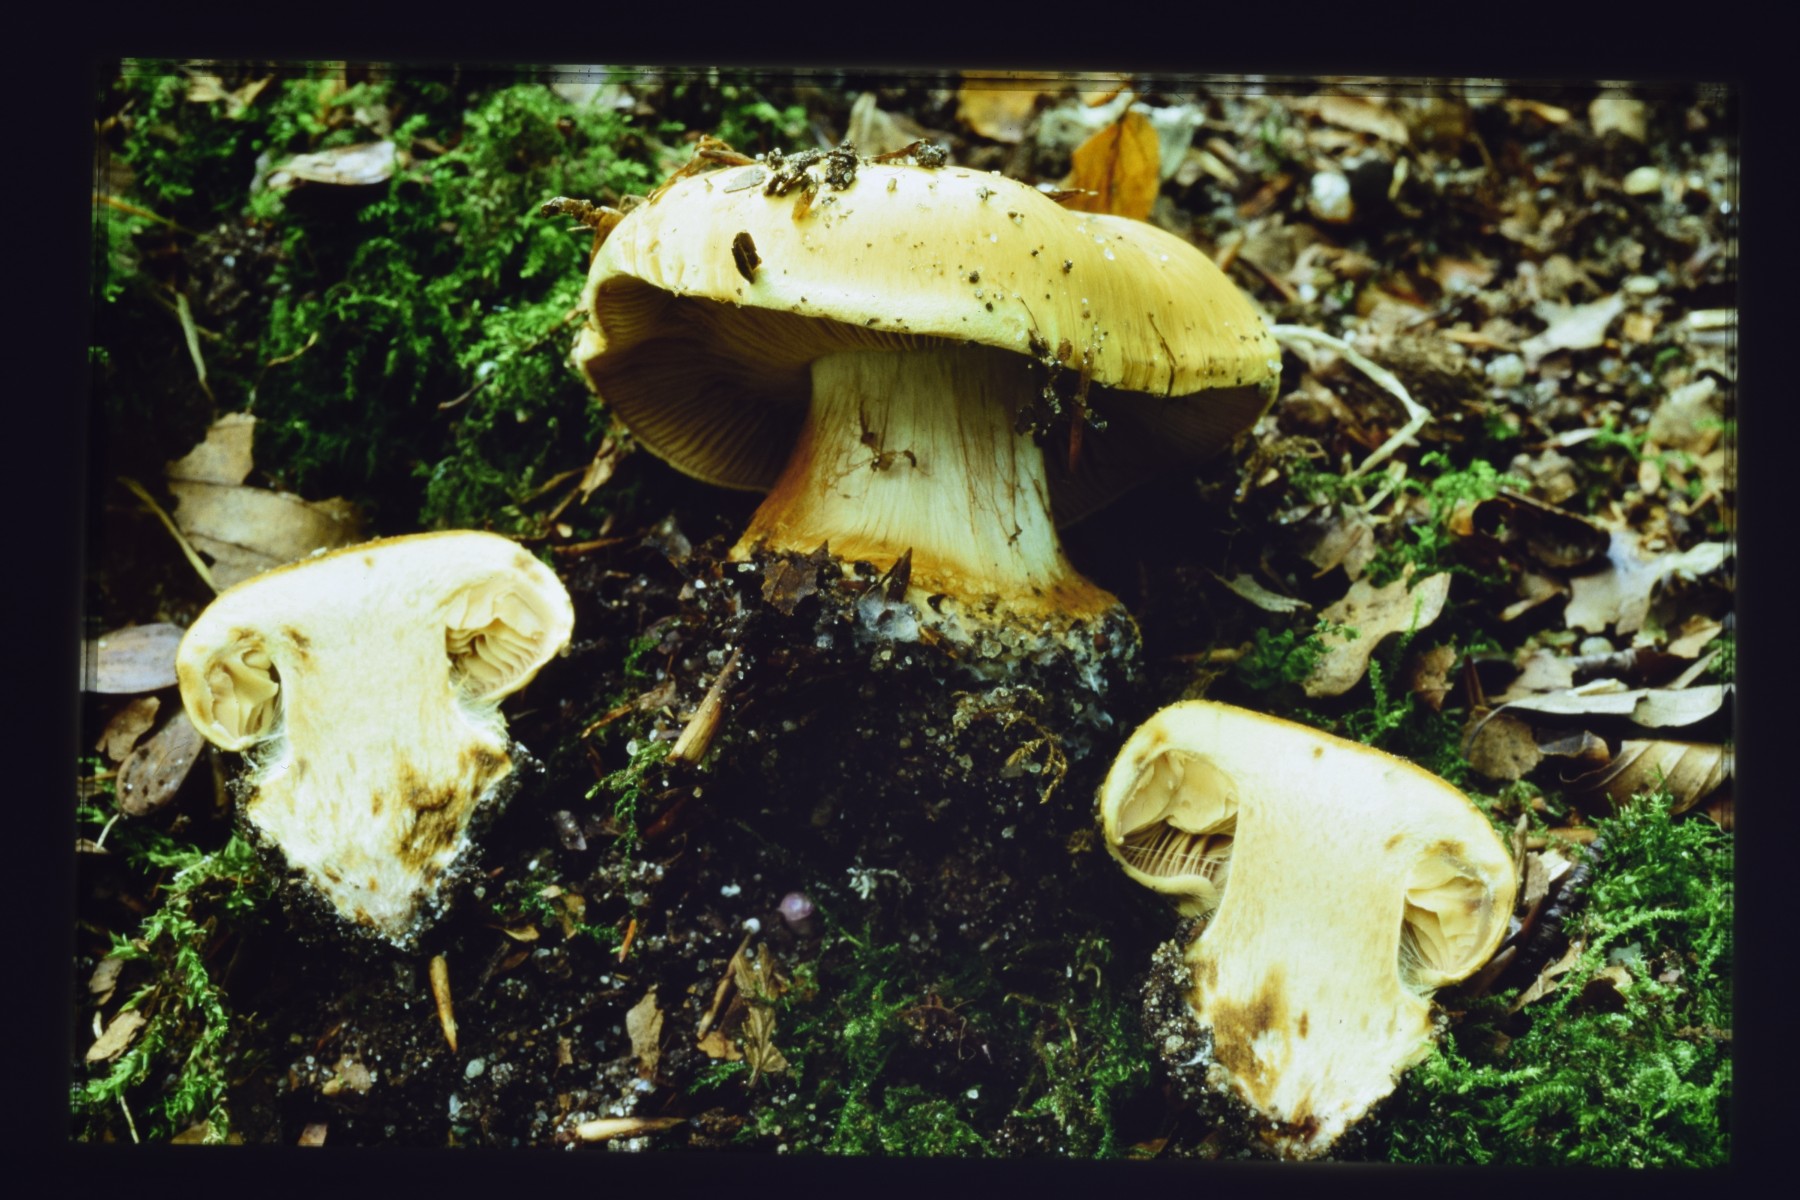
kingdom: Fungi
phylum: Basidiomycota
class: Agaricomycetes
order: Agaricales
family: Cortinariaceae
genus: Cortinarius
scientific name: Cortinarius koldingensis
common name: strågul slørhat
